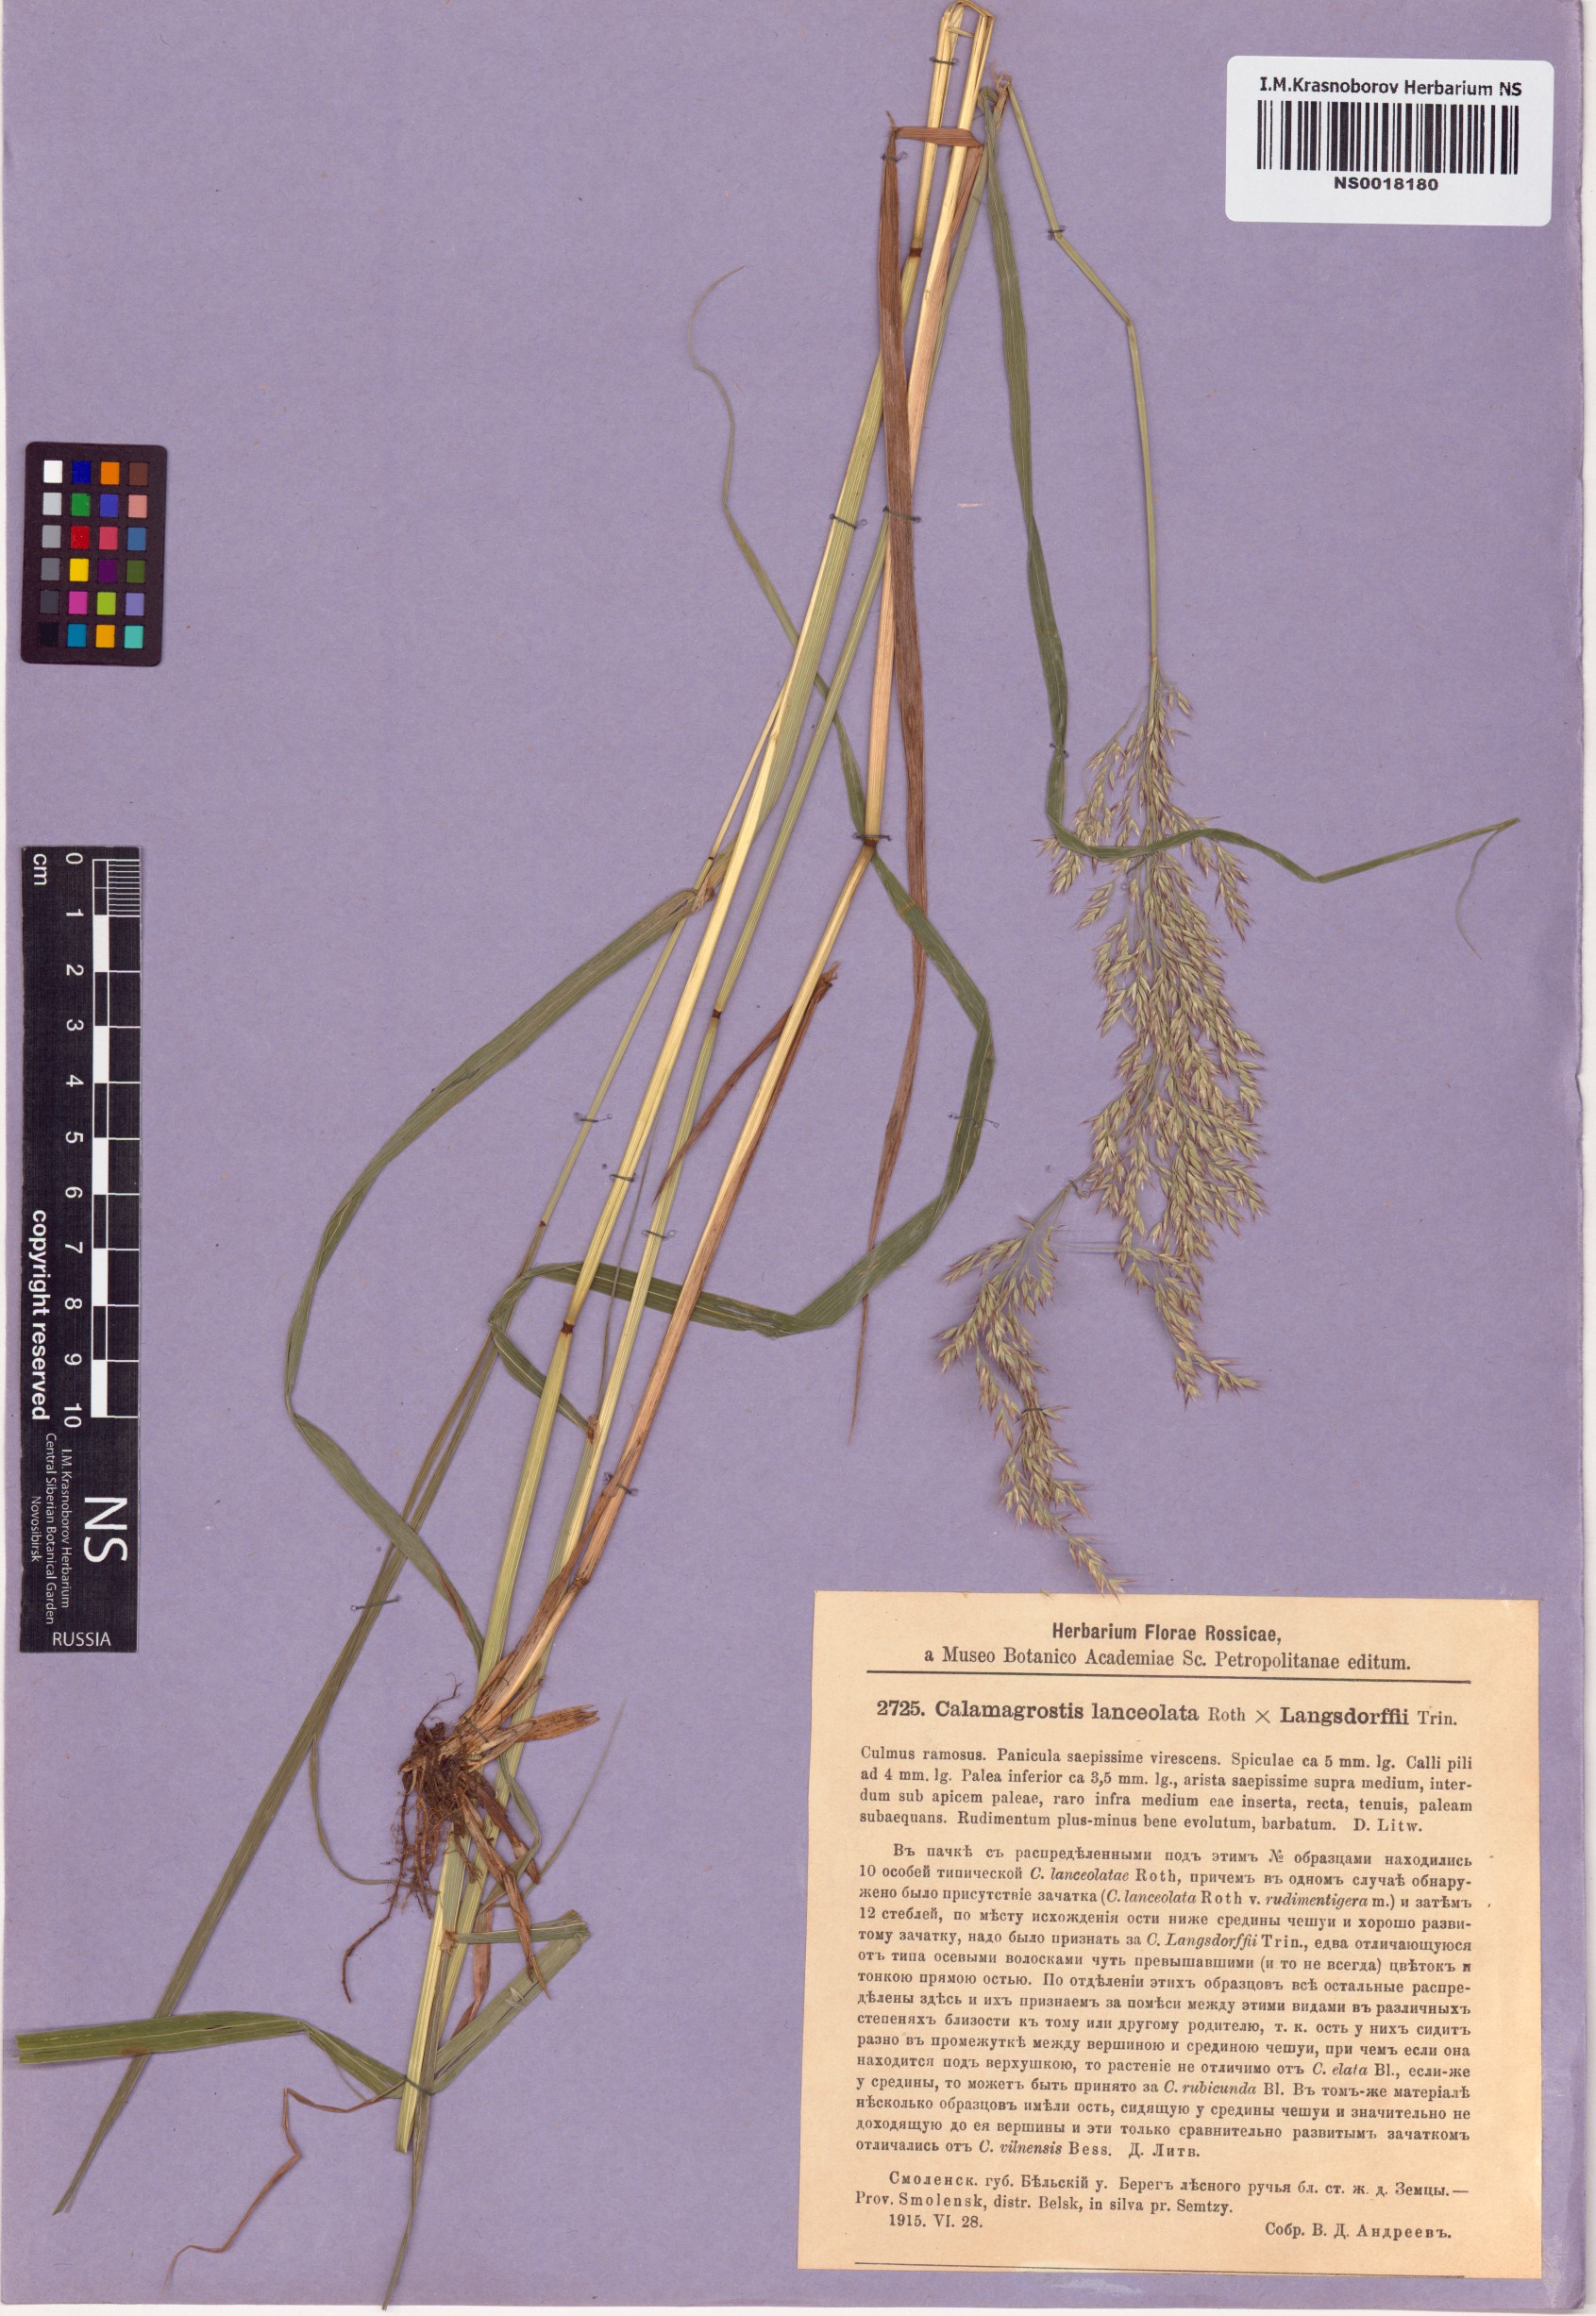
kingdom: Plantae
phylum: Tracheophyta
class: Liliopsida
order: Poales
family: Poaceae
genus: Calamagrostis
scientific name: Calamagrostis canescens
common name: Purple small-reed
